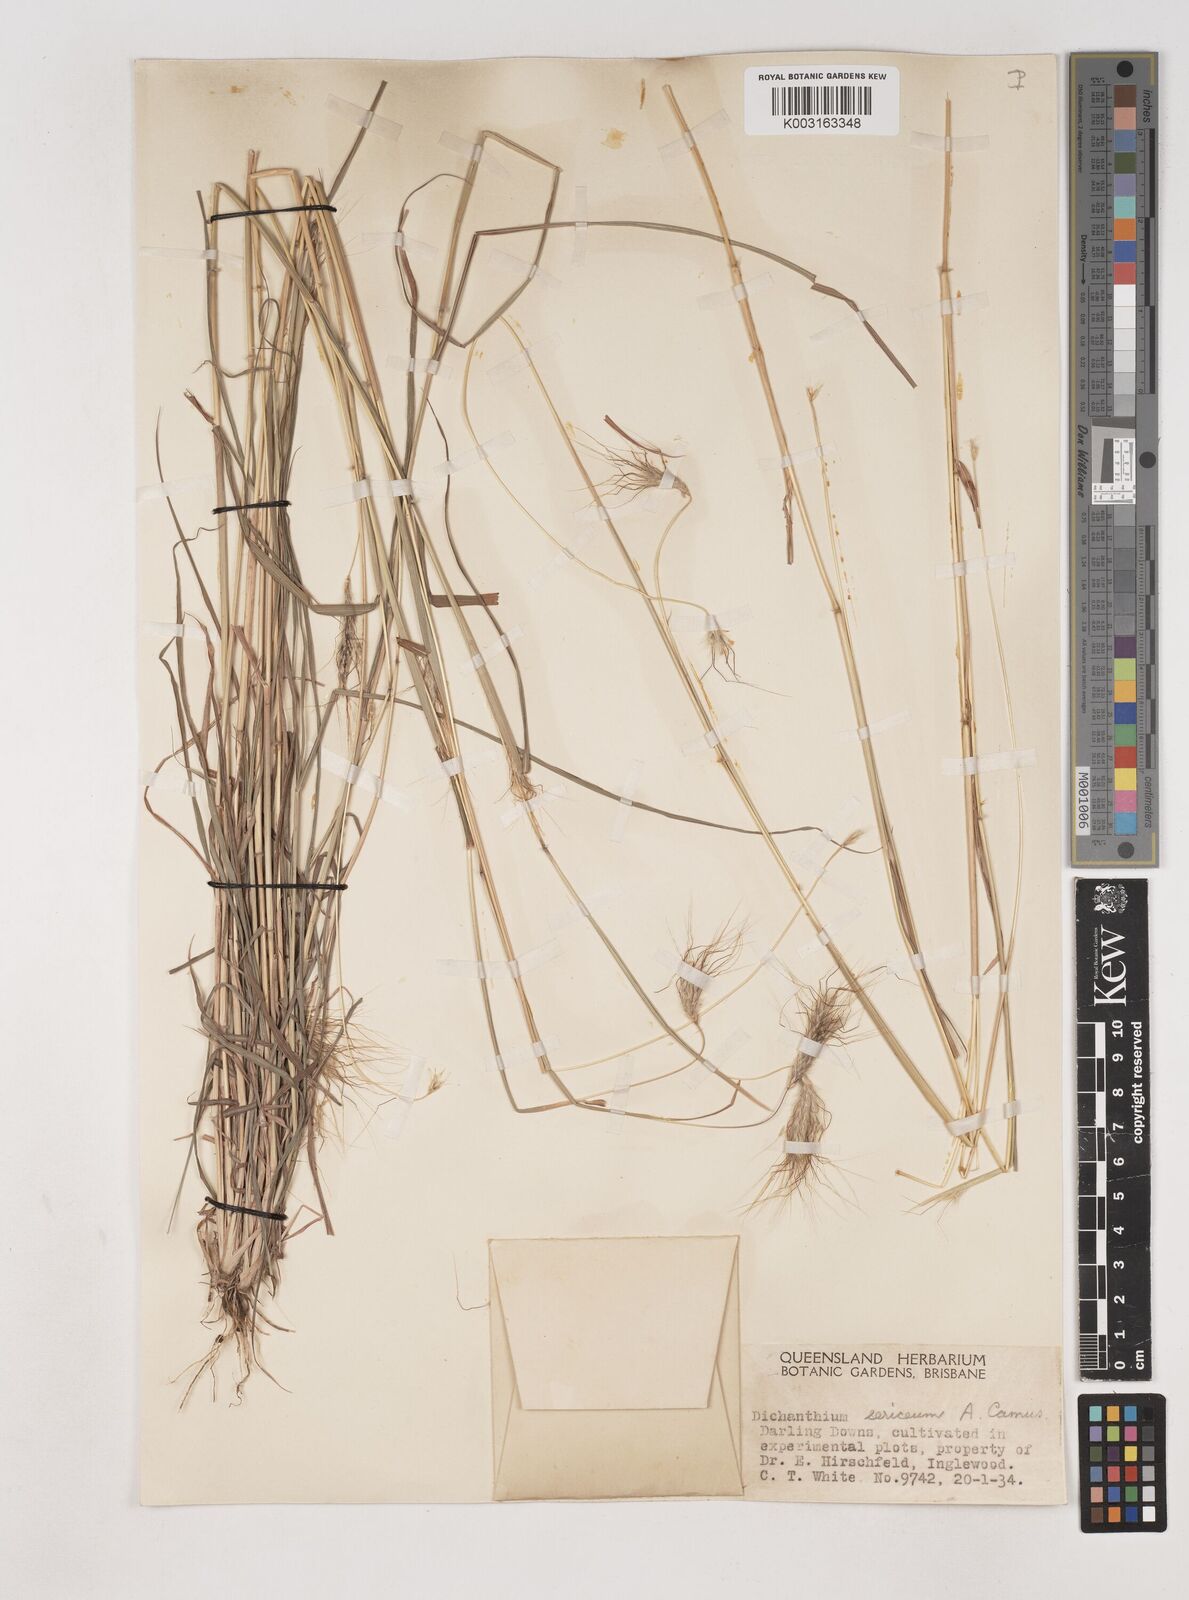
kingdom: Plantae
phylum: Tracheophyta
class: Liliopsida
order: Poales
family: Poaceae
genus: Dichanthium
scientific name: Dichanthium sericeum
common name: Silky bluestem
